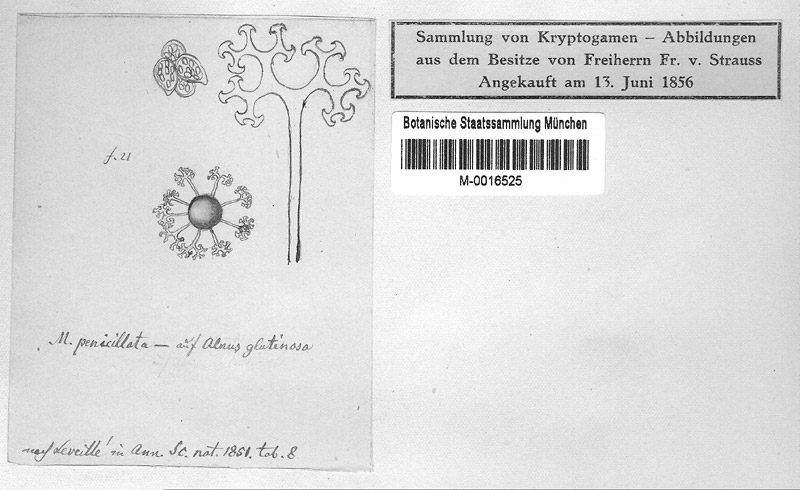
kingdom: Fungi
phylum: Ascomycota
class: Leotiomycetes
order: Helotiales
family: Erysiphaceae
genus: Erysiphe
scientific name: Erysiphe penicillata
